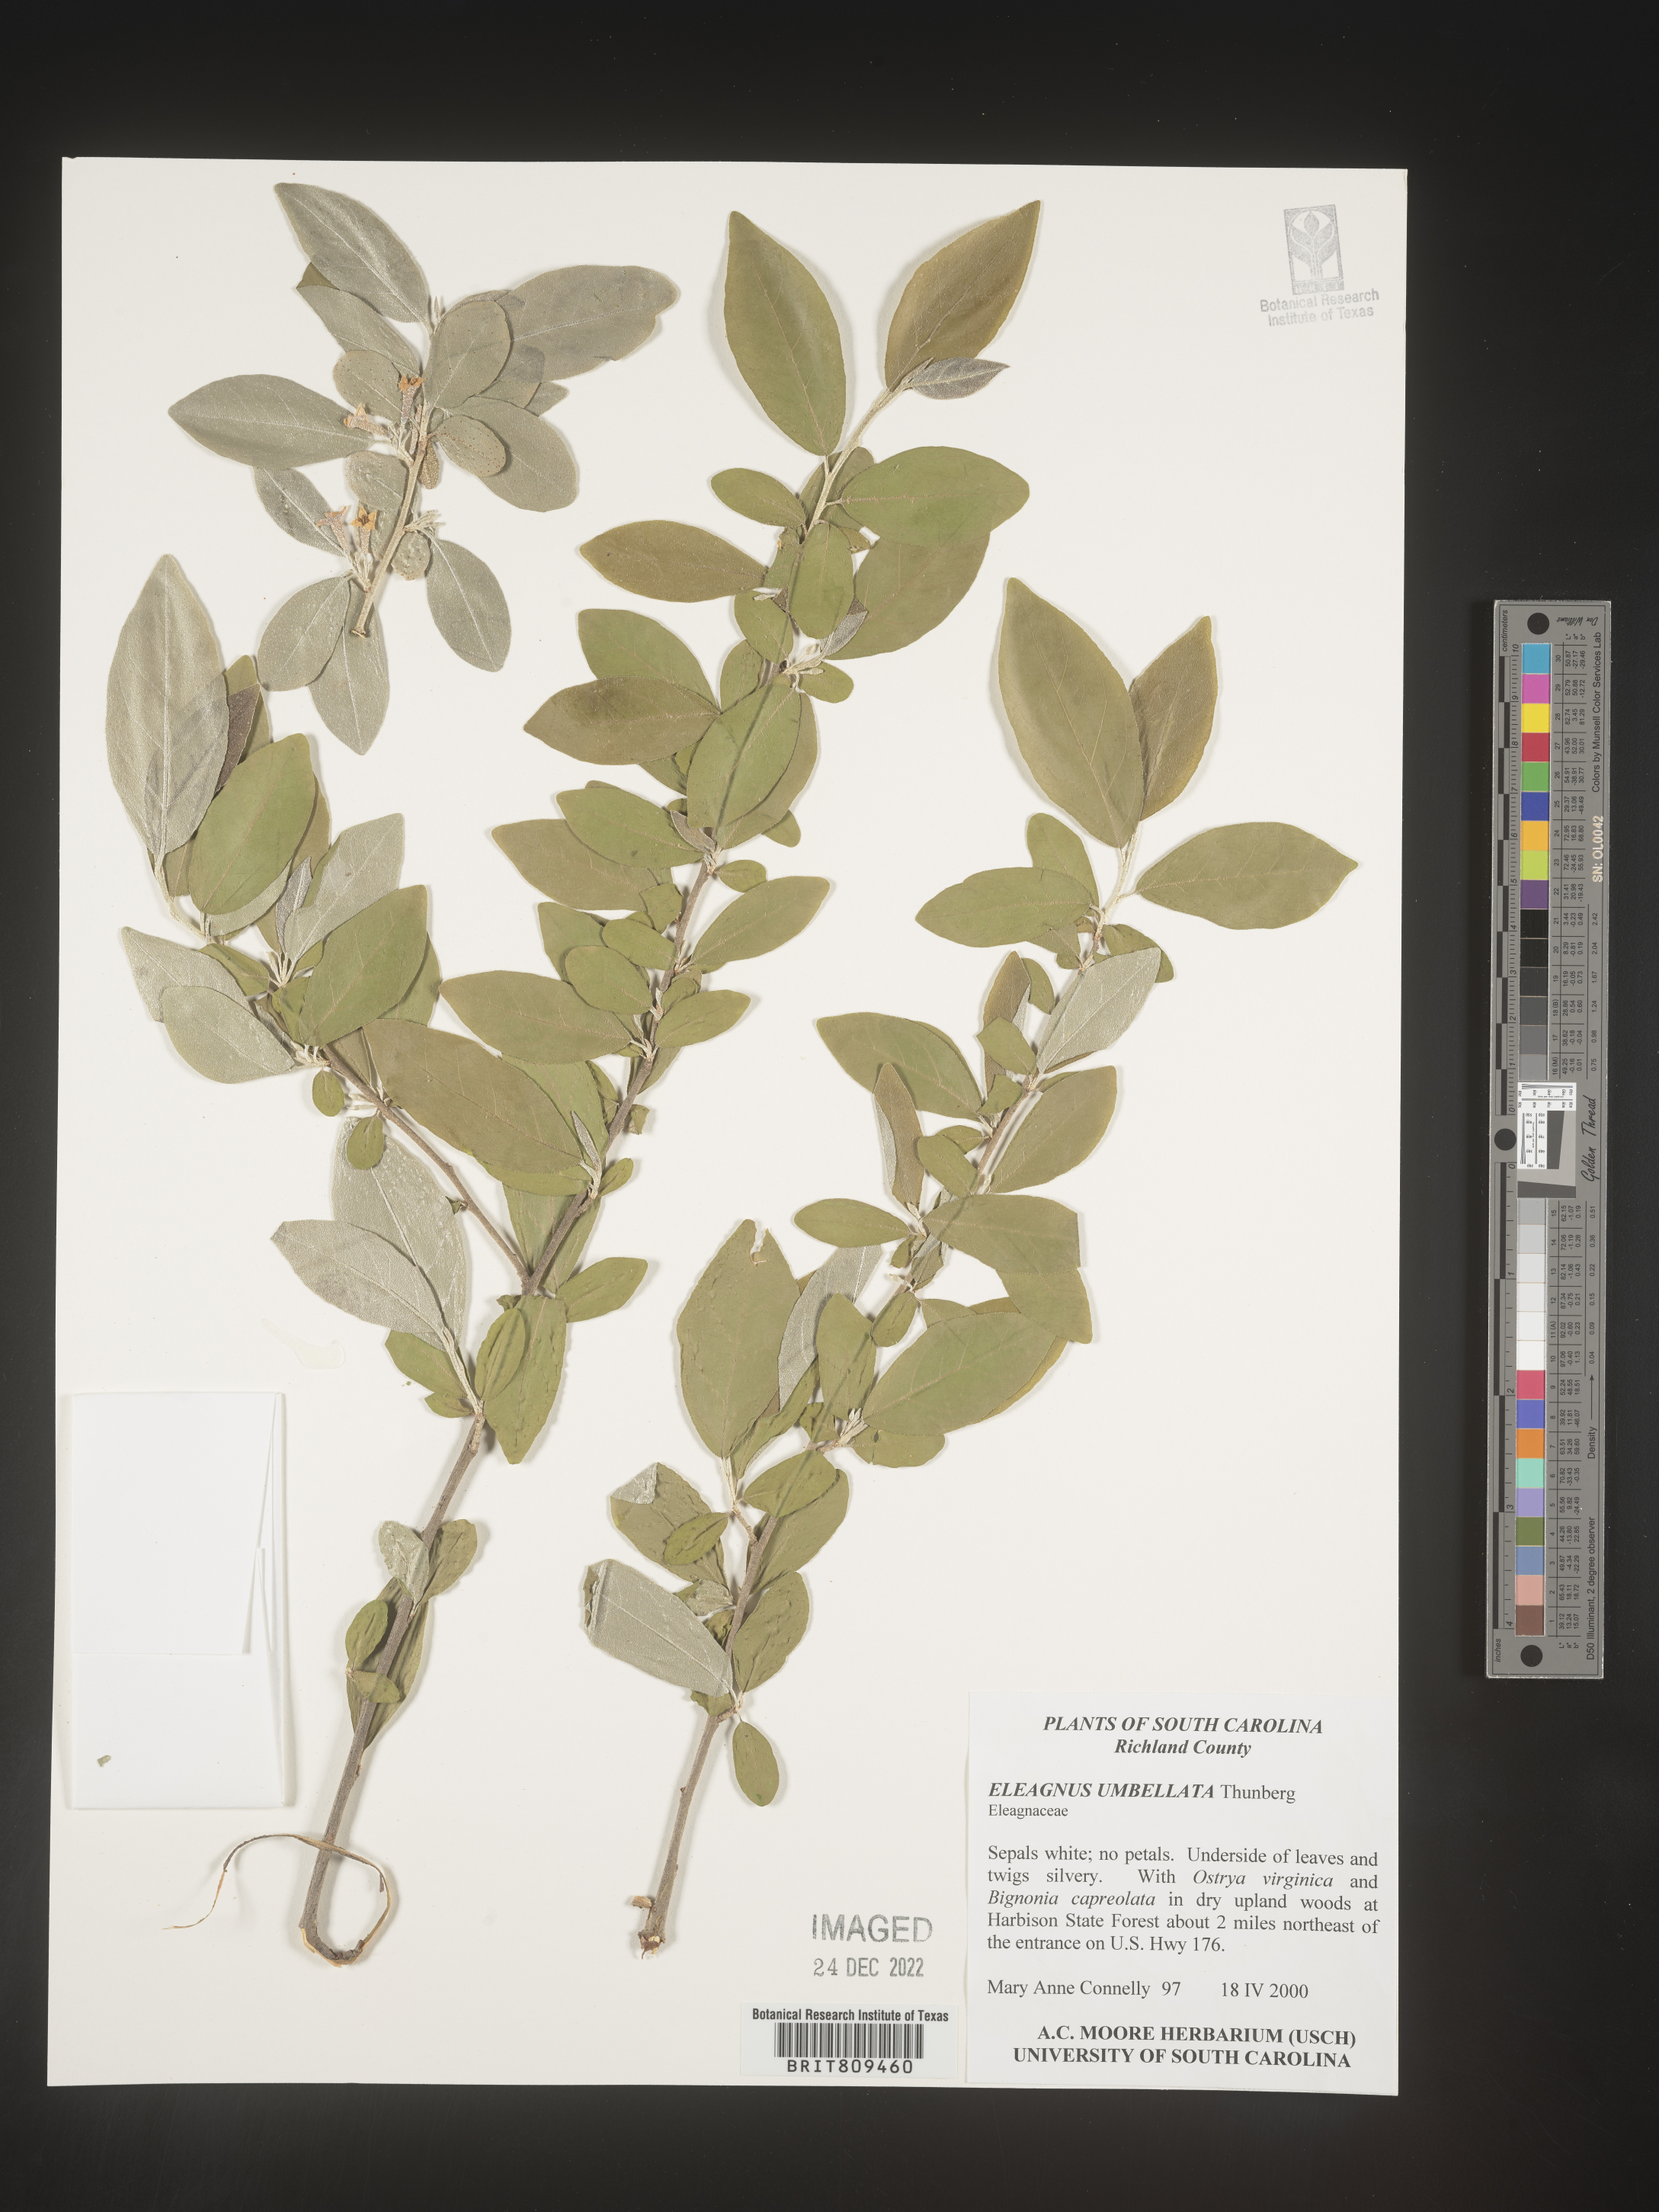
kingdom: Plantae
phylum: Tracheophyta
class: Magnoliopsida
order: Rosales
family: Elaeagnaceae
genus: Elaeagnus
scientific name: Elaeagnus
